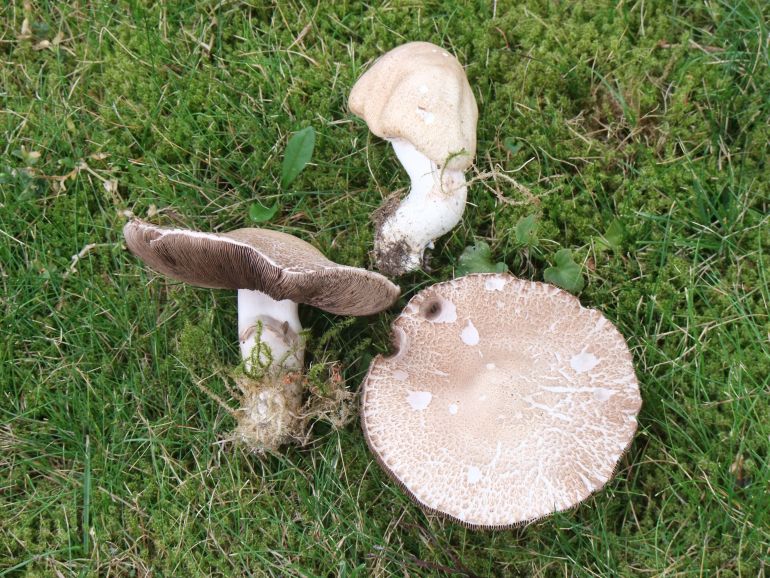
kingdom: Fungi
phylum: Basidiomycota
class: Agaricomycetes
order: Agaricales
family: Agaricaceae
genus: Agaricus
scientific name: Agaricus depauperatus
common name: finskællet champignon
